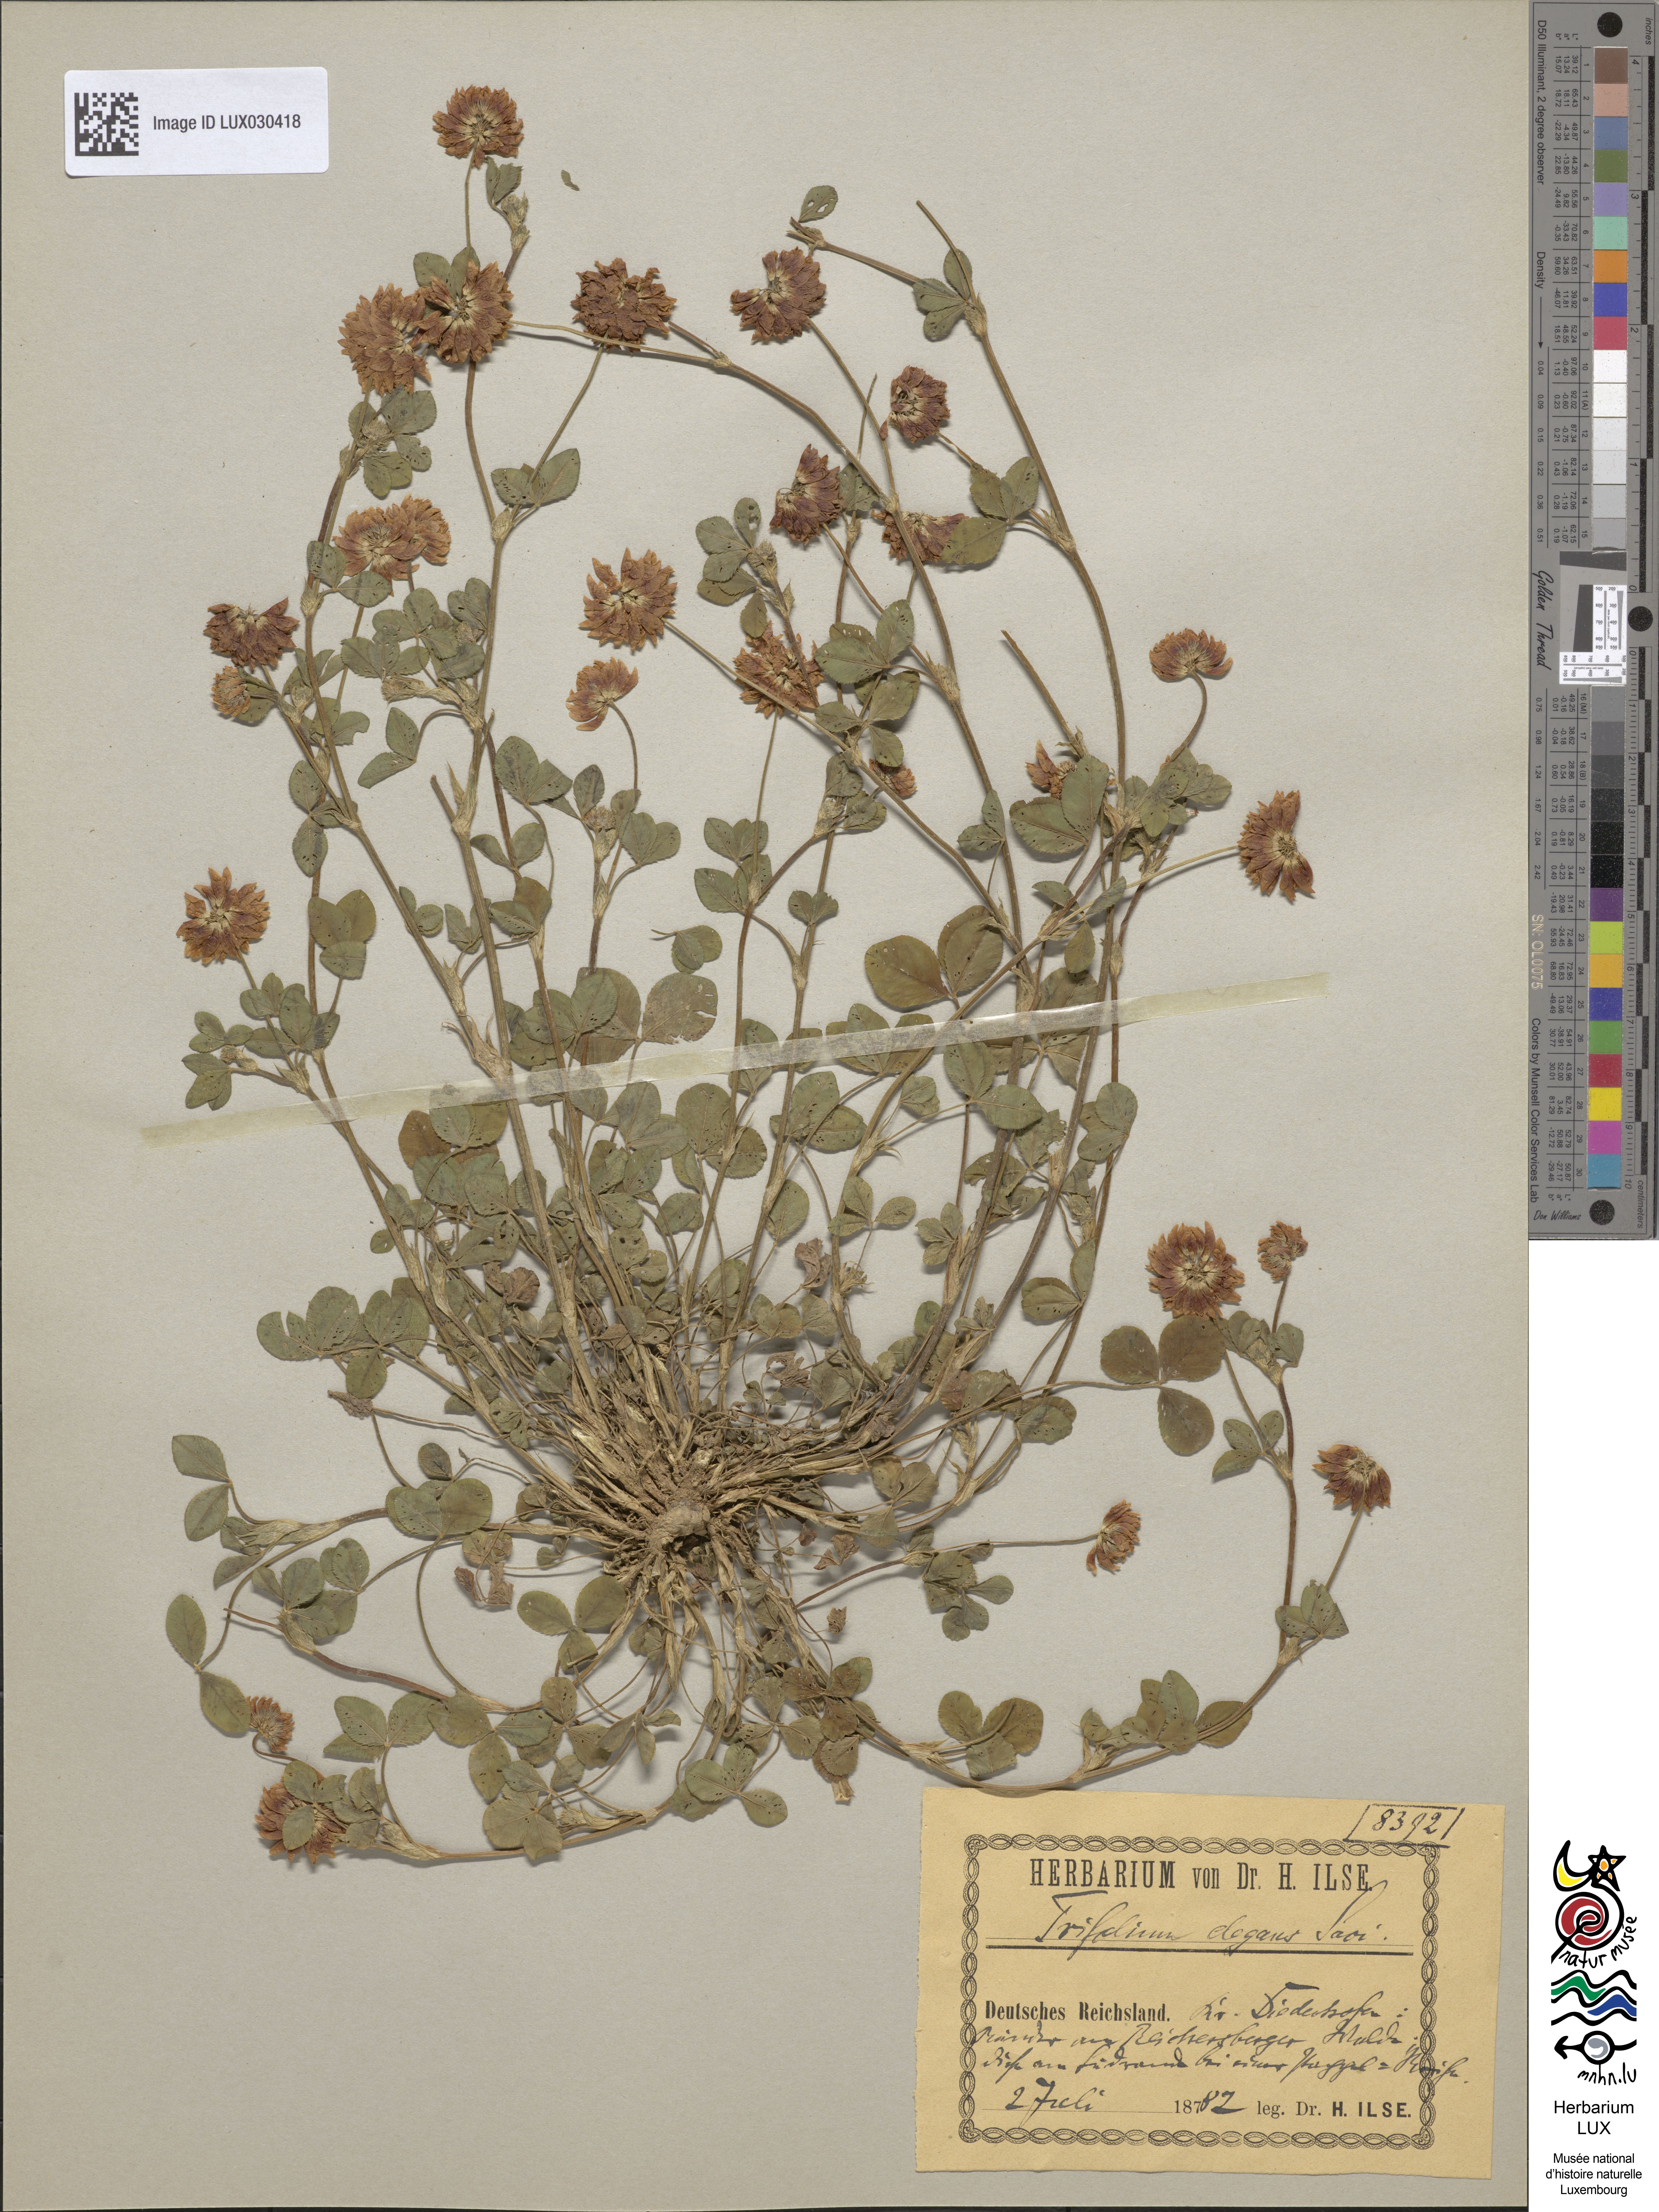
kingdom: Plantae
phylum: Tracheophyta
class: Magnoliopsida
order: Fabales
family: Fabaceae
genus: Trifolium
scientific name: Trifolium hybridum
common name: Alsike clover
